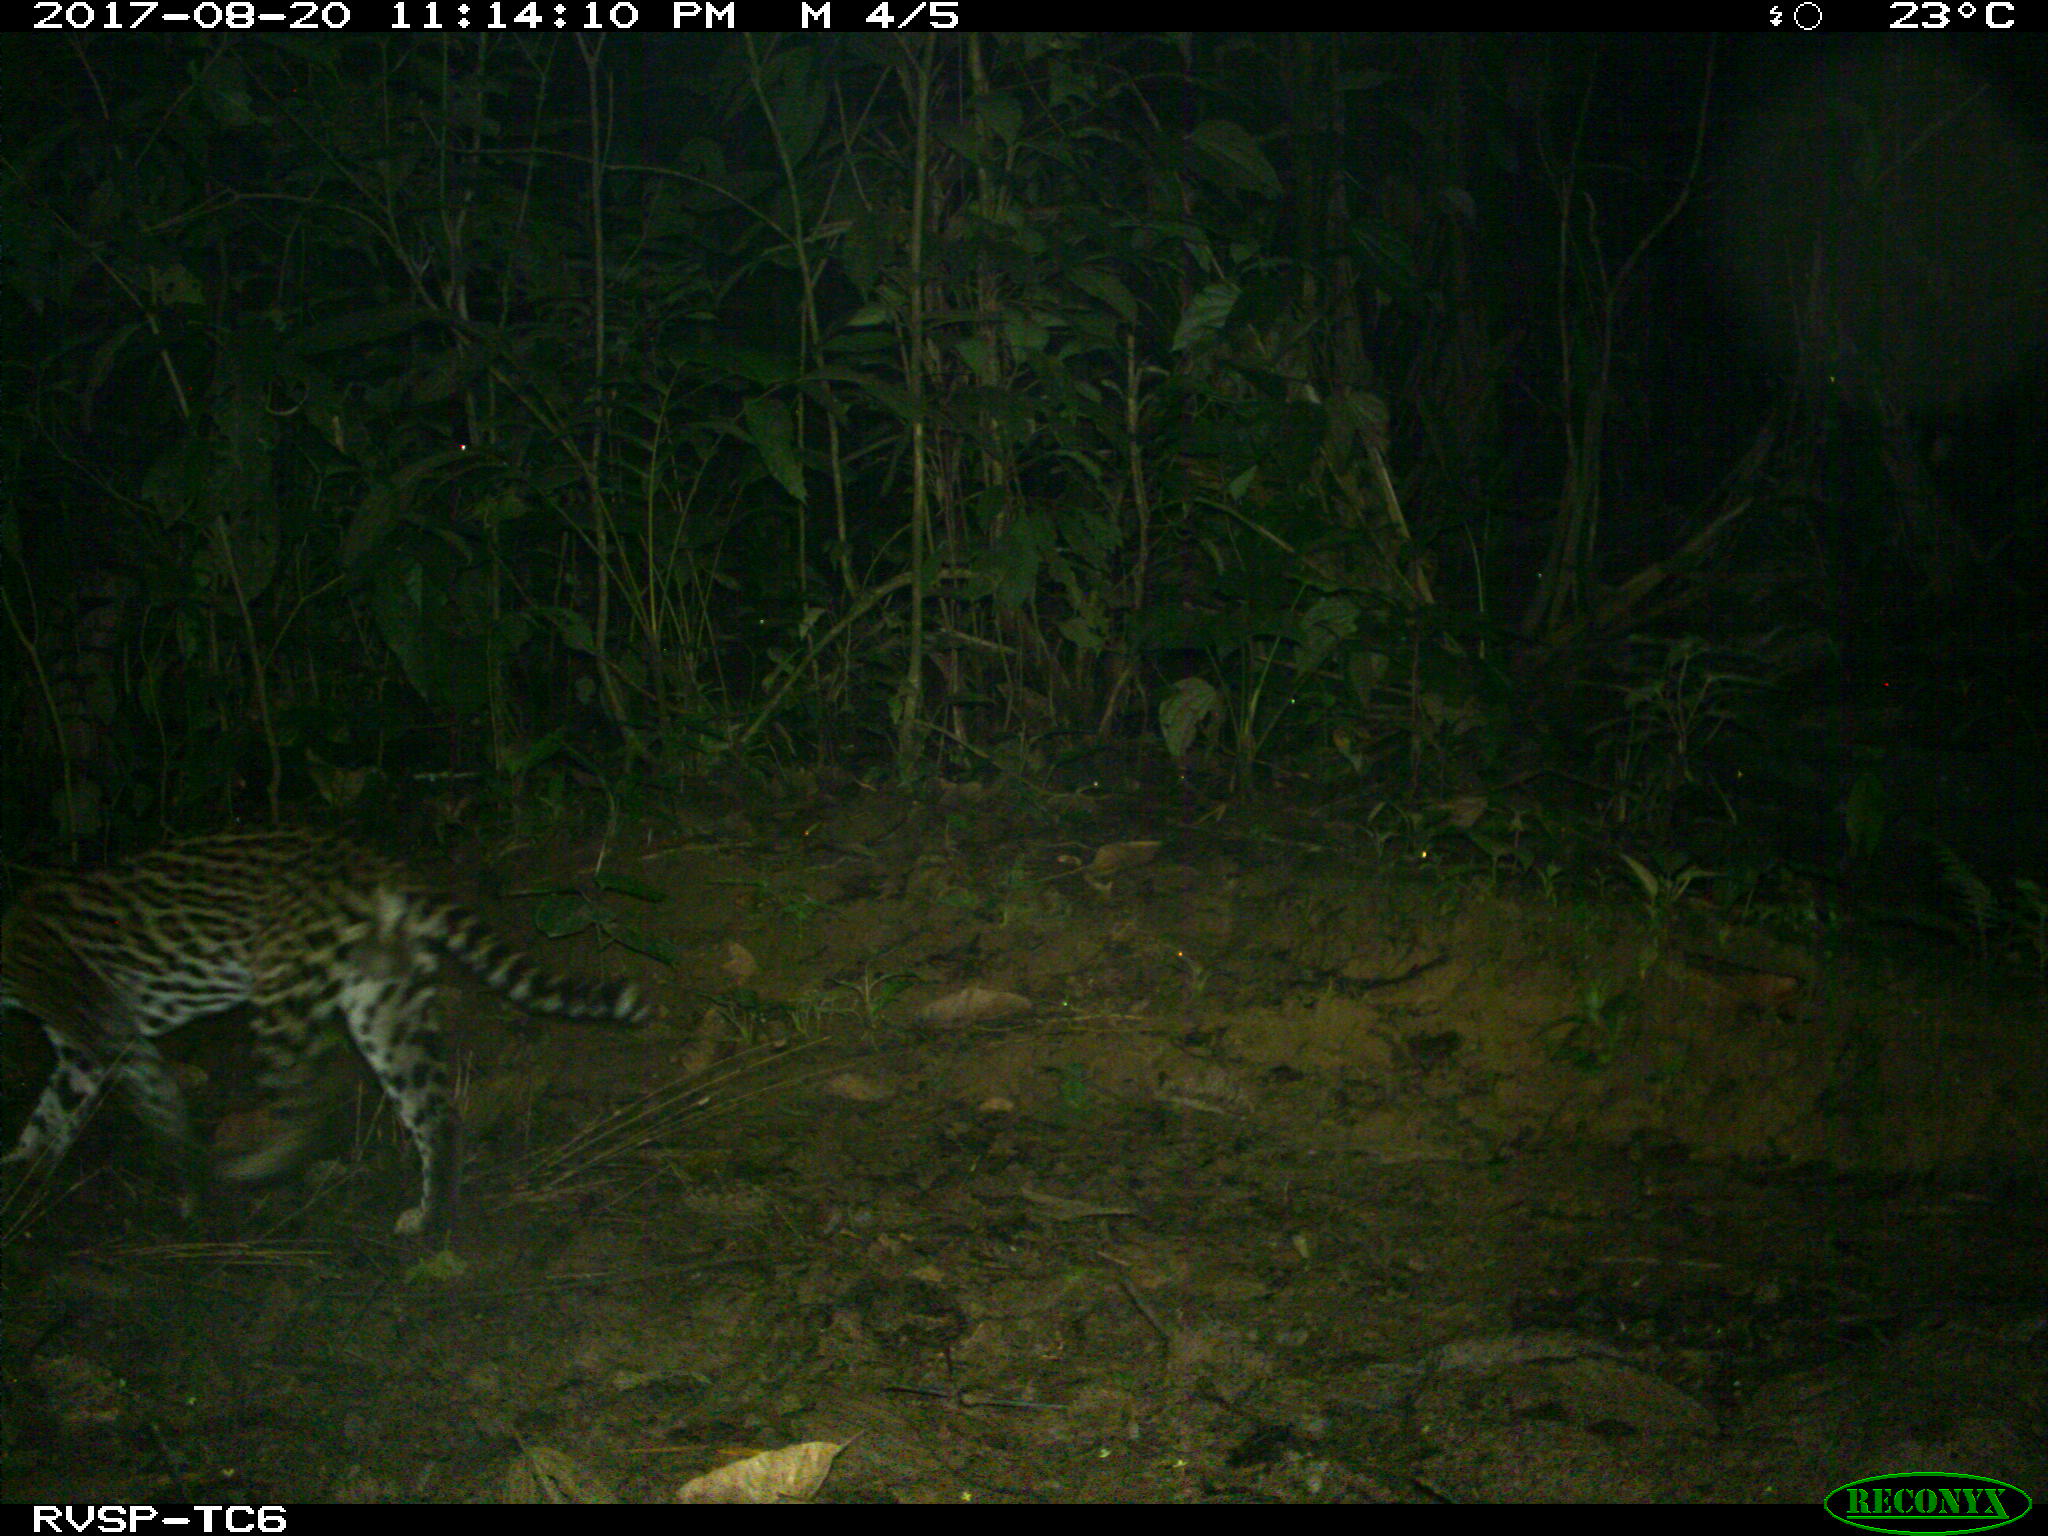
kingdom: Animalia
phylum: Chordata
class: Mammalia
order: Carnivora
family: Felidae
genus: Leopardus
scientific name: Leopardus pardalis
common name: Ocelot
